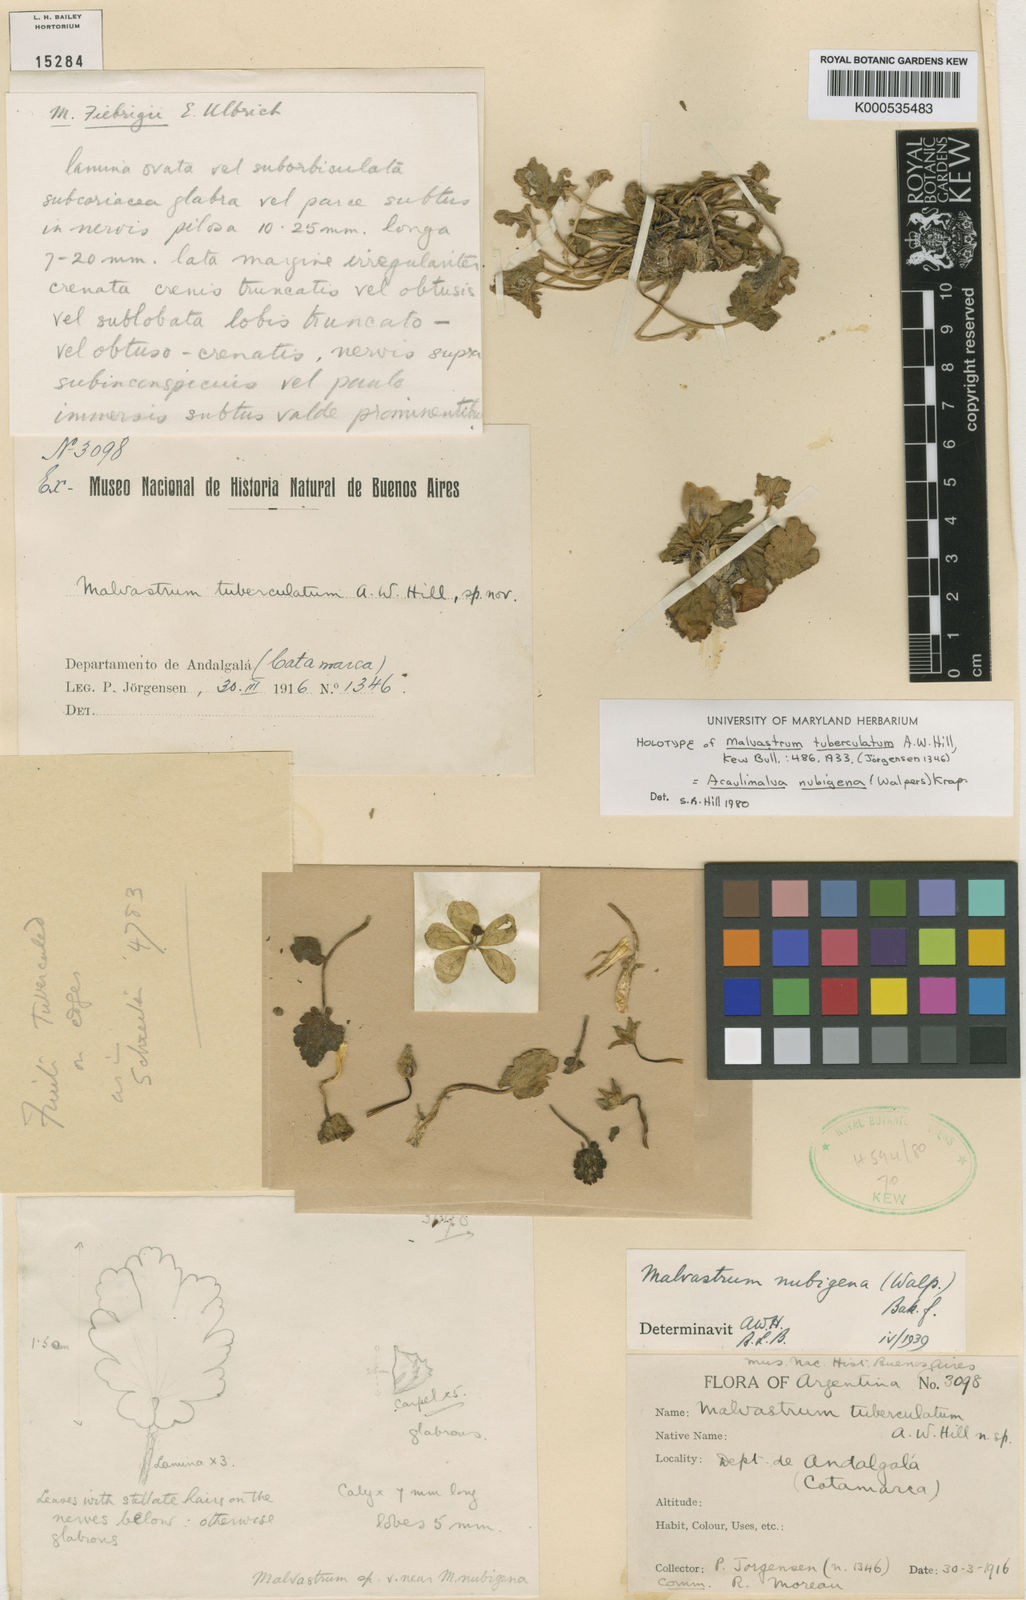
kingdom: Plantae
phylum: Tracheophyta
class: Magnoliopsida
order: Malvales
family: Malvaceae
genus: Acaulimalva
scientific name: Acaulimalva nubigena
